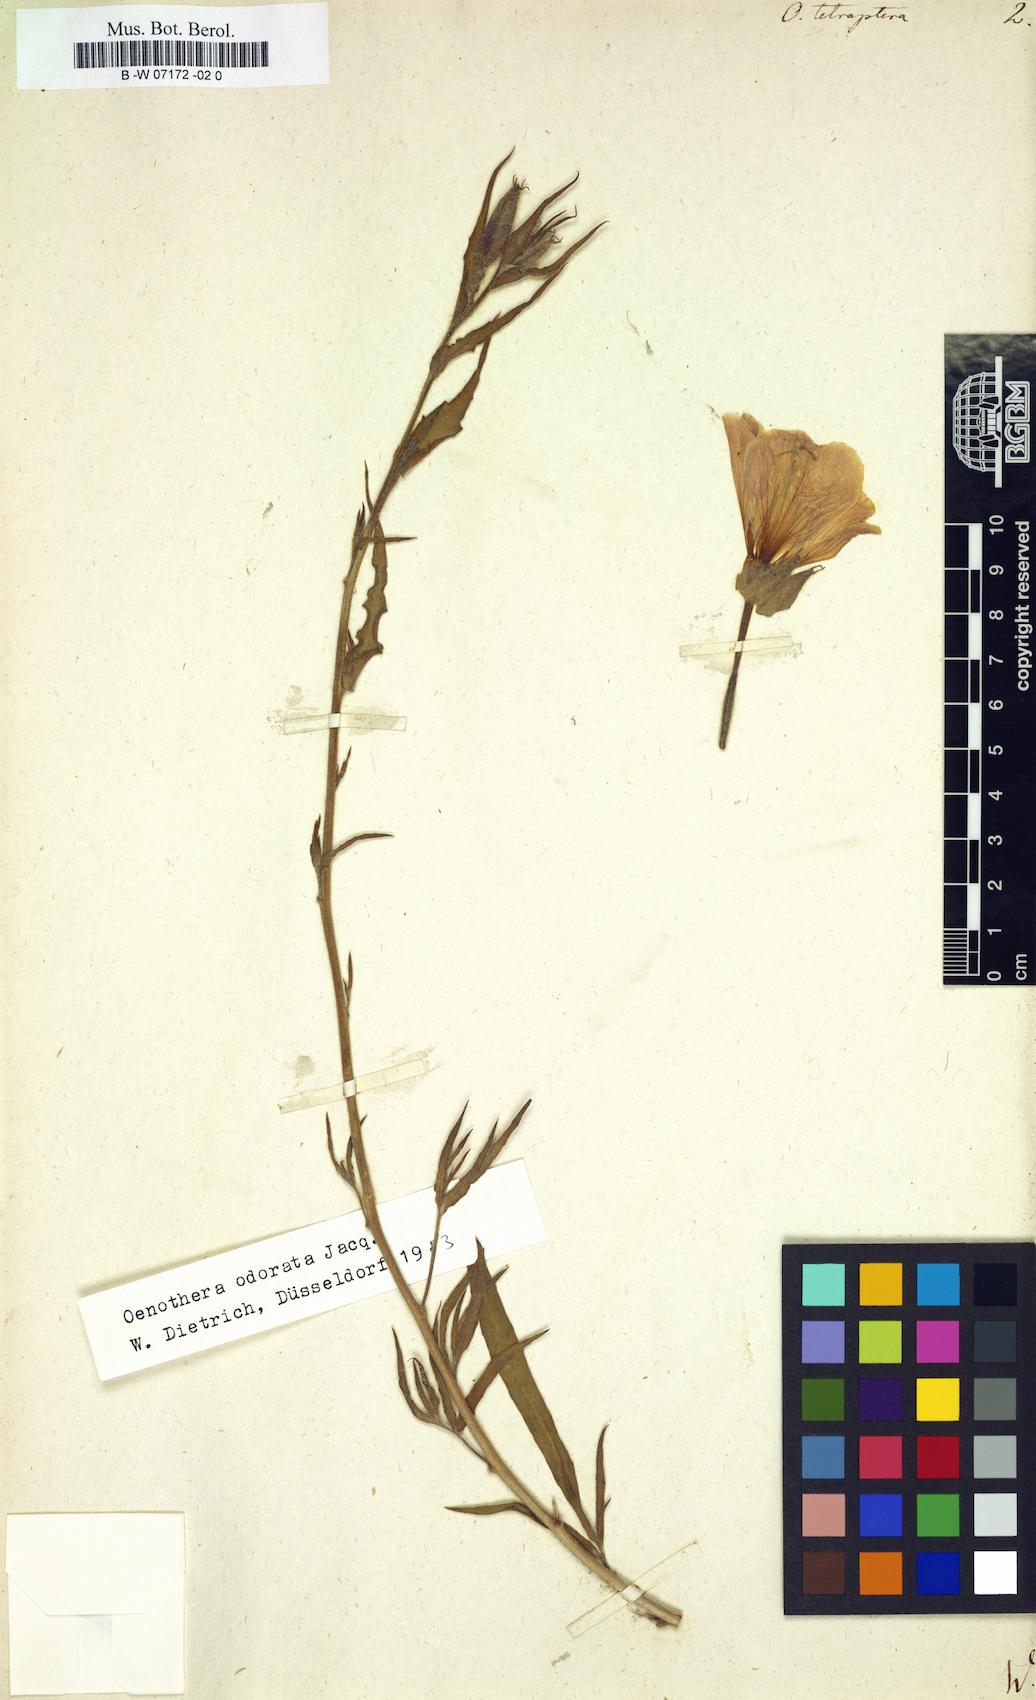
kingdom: Plantae
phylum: Tracheophyta
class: Magnoliopsida
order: Myrtales
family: Onagraceae
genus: Oenothera
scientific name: Oenothera tetraptera
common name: Four-wing evening-primrose
